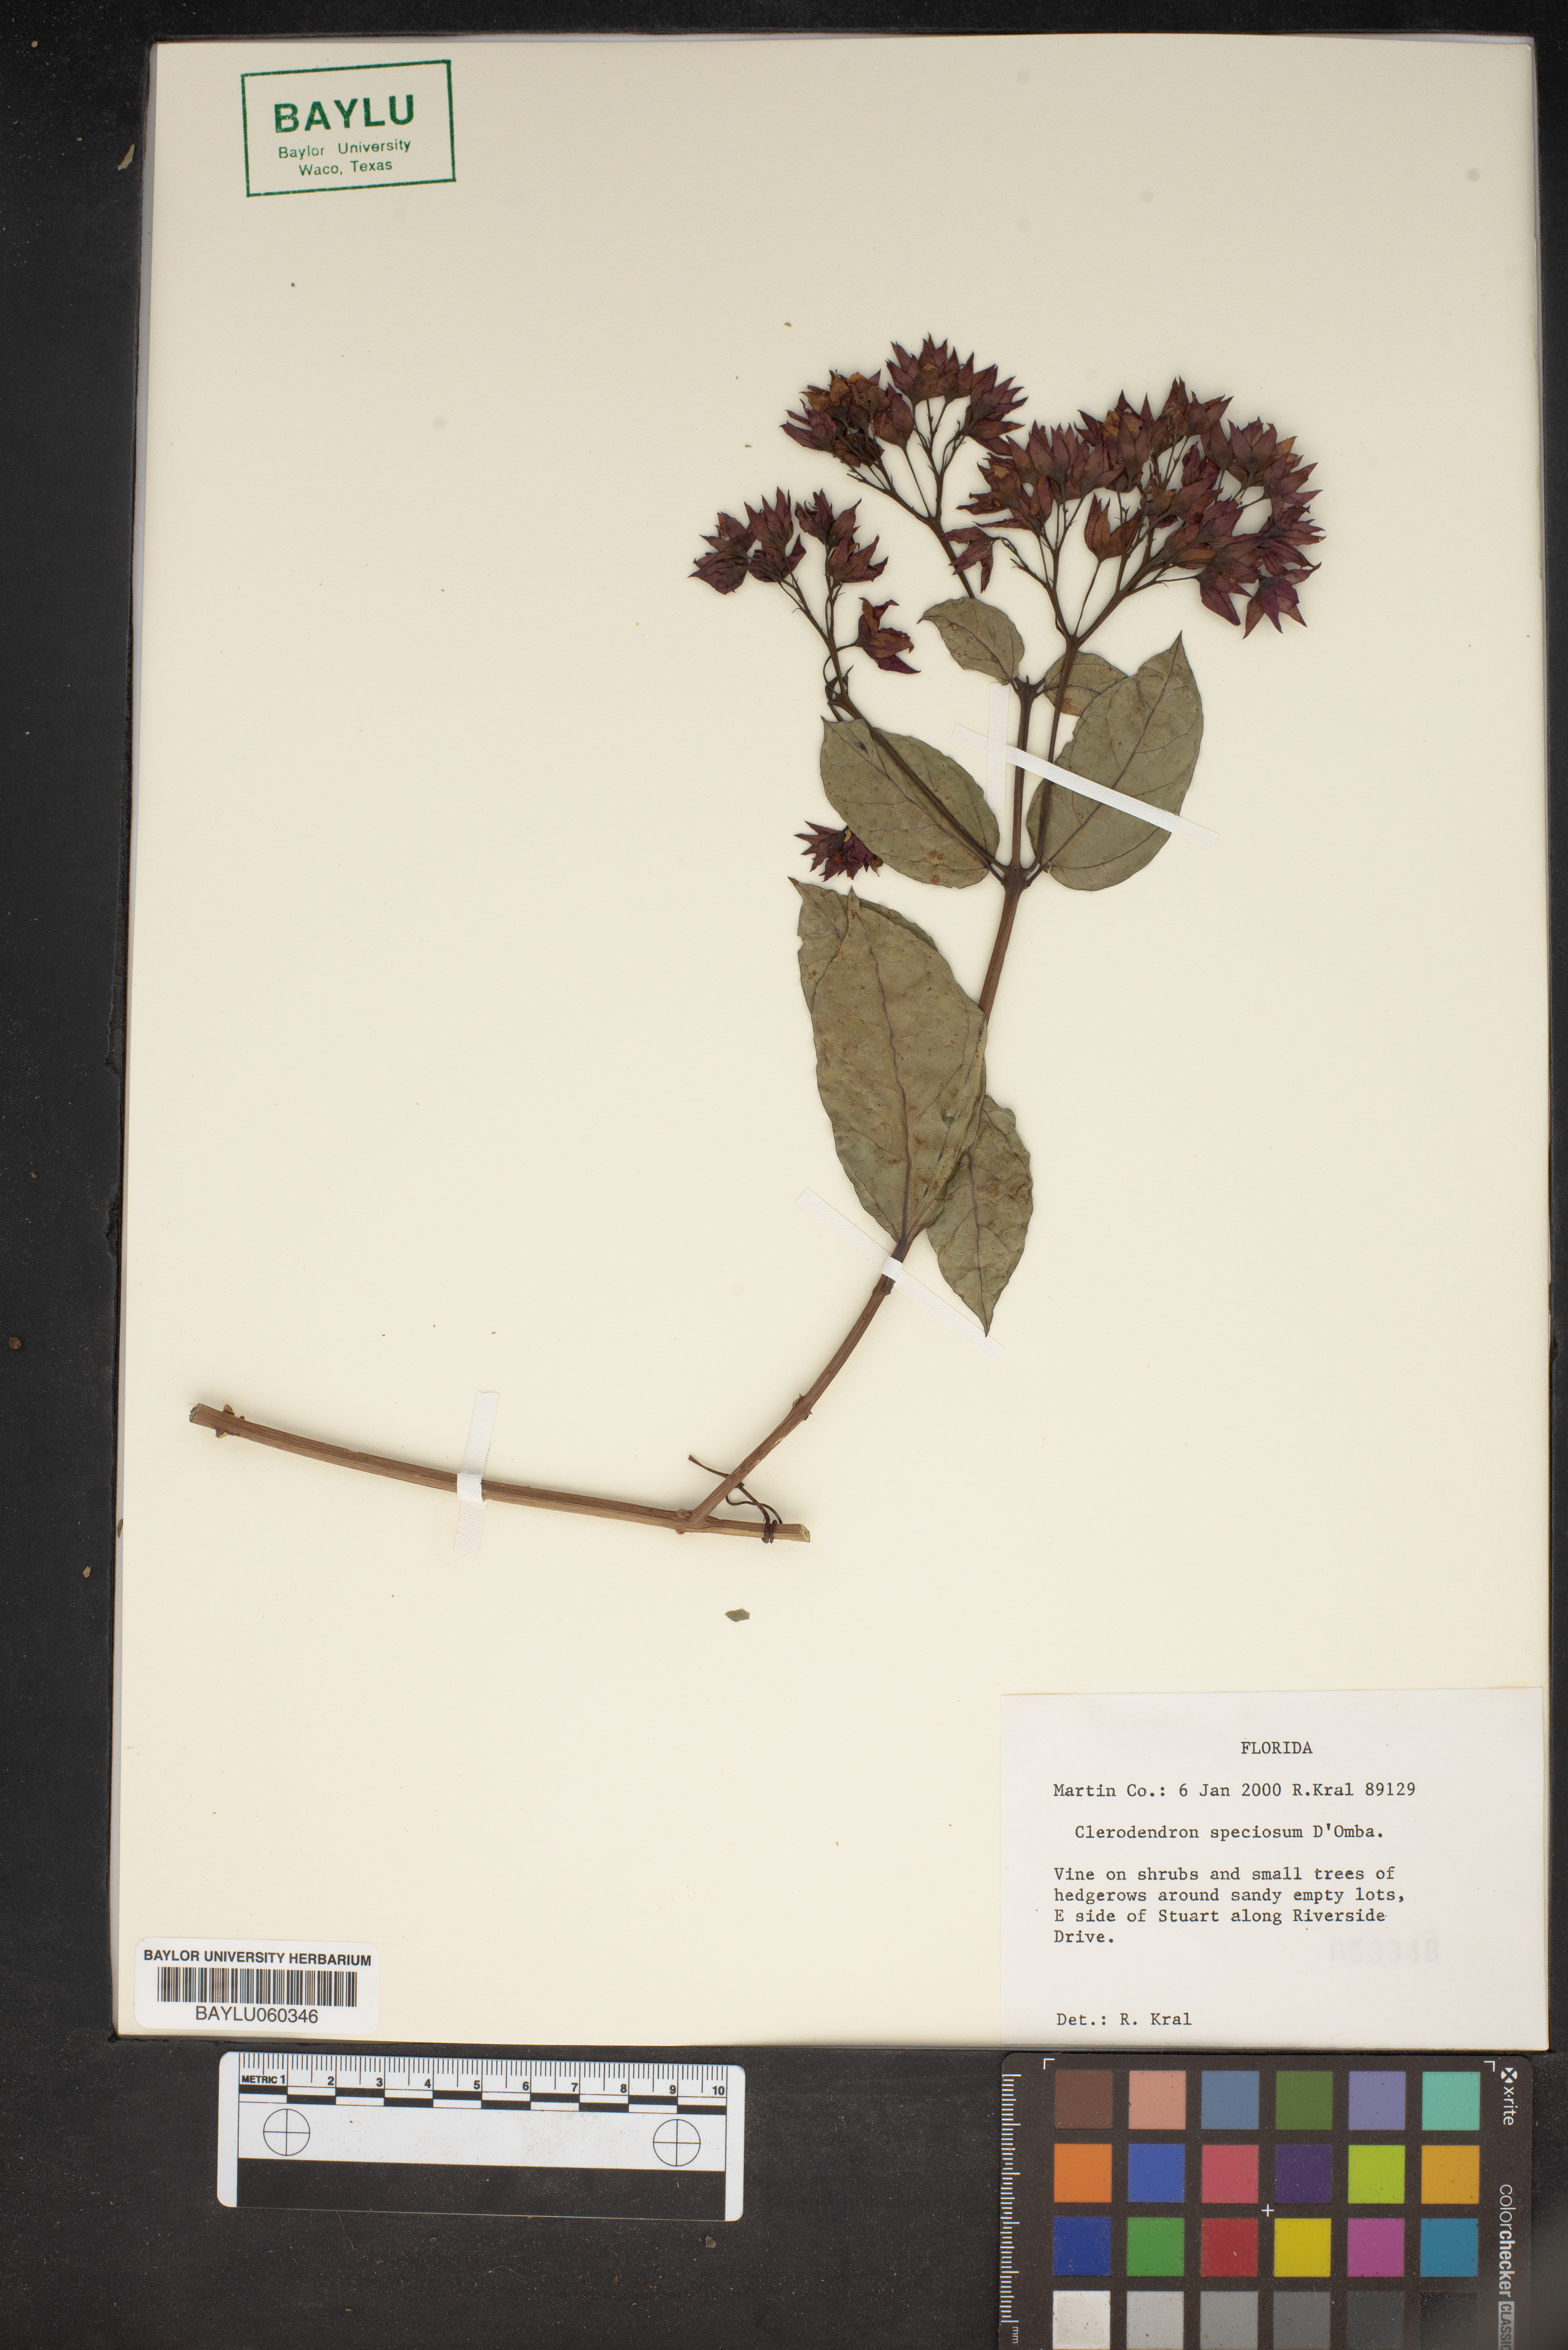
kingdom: Plantae
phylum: Tracheophyta
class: Magnoliopsida
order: Lamiales
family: Lamiaceae
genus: Clerodendrum
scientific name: Clerodendrum speciosum
